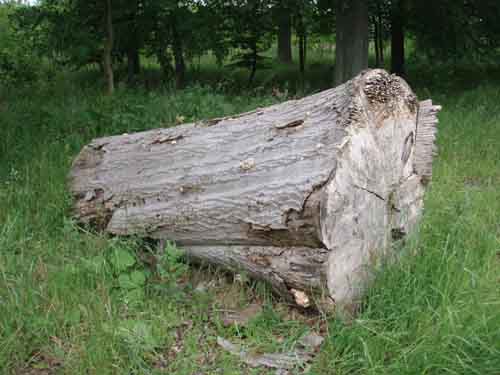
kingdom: Fungi
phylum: Basidiomycota
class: Agaricomycetes
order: Russulales
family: Hericiaceae
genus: Hericium
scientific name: Hericium cirrhatum
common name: børstepigsvamp
